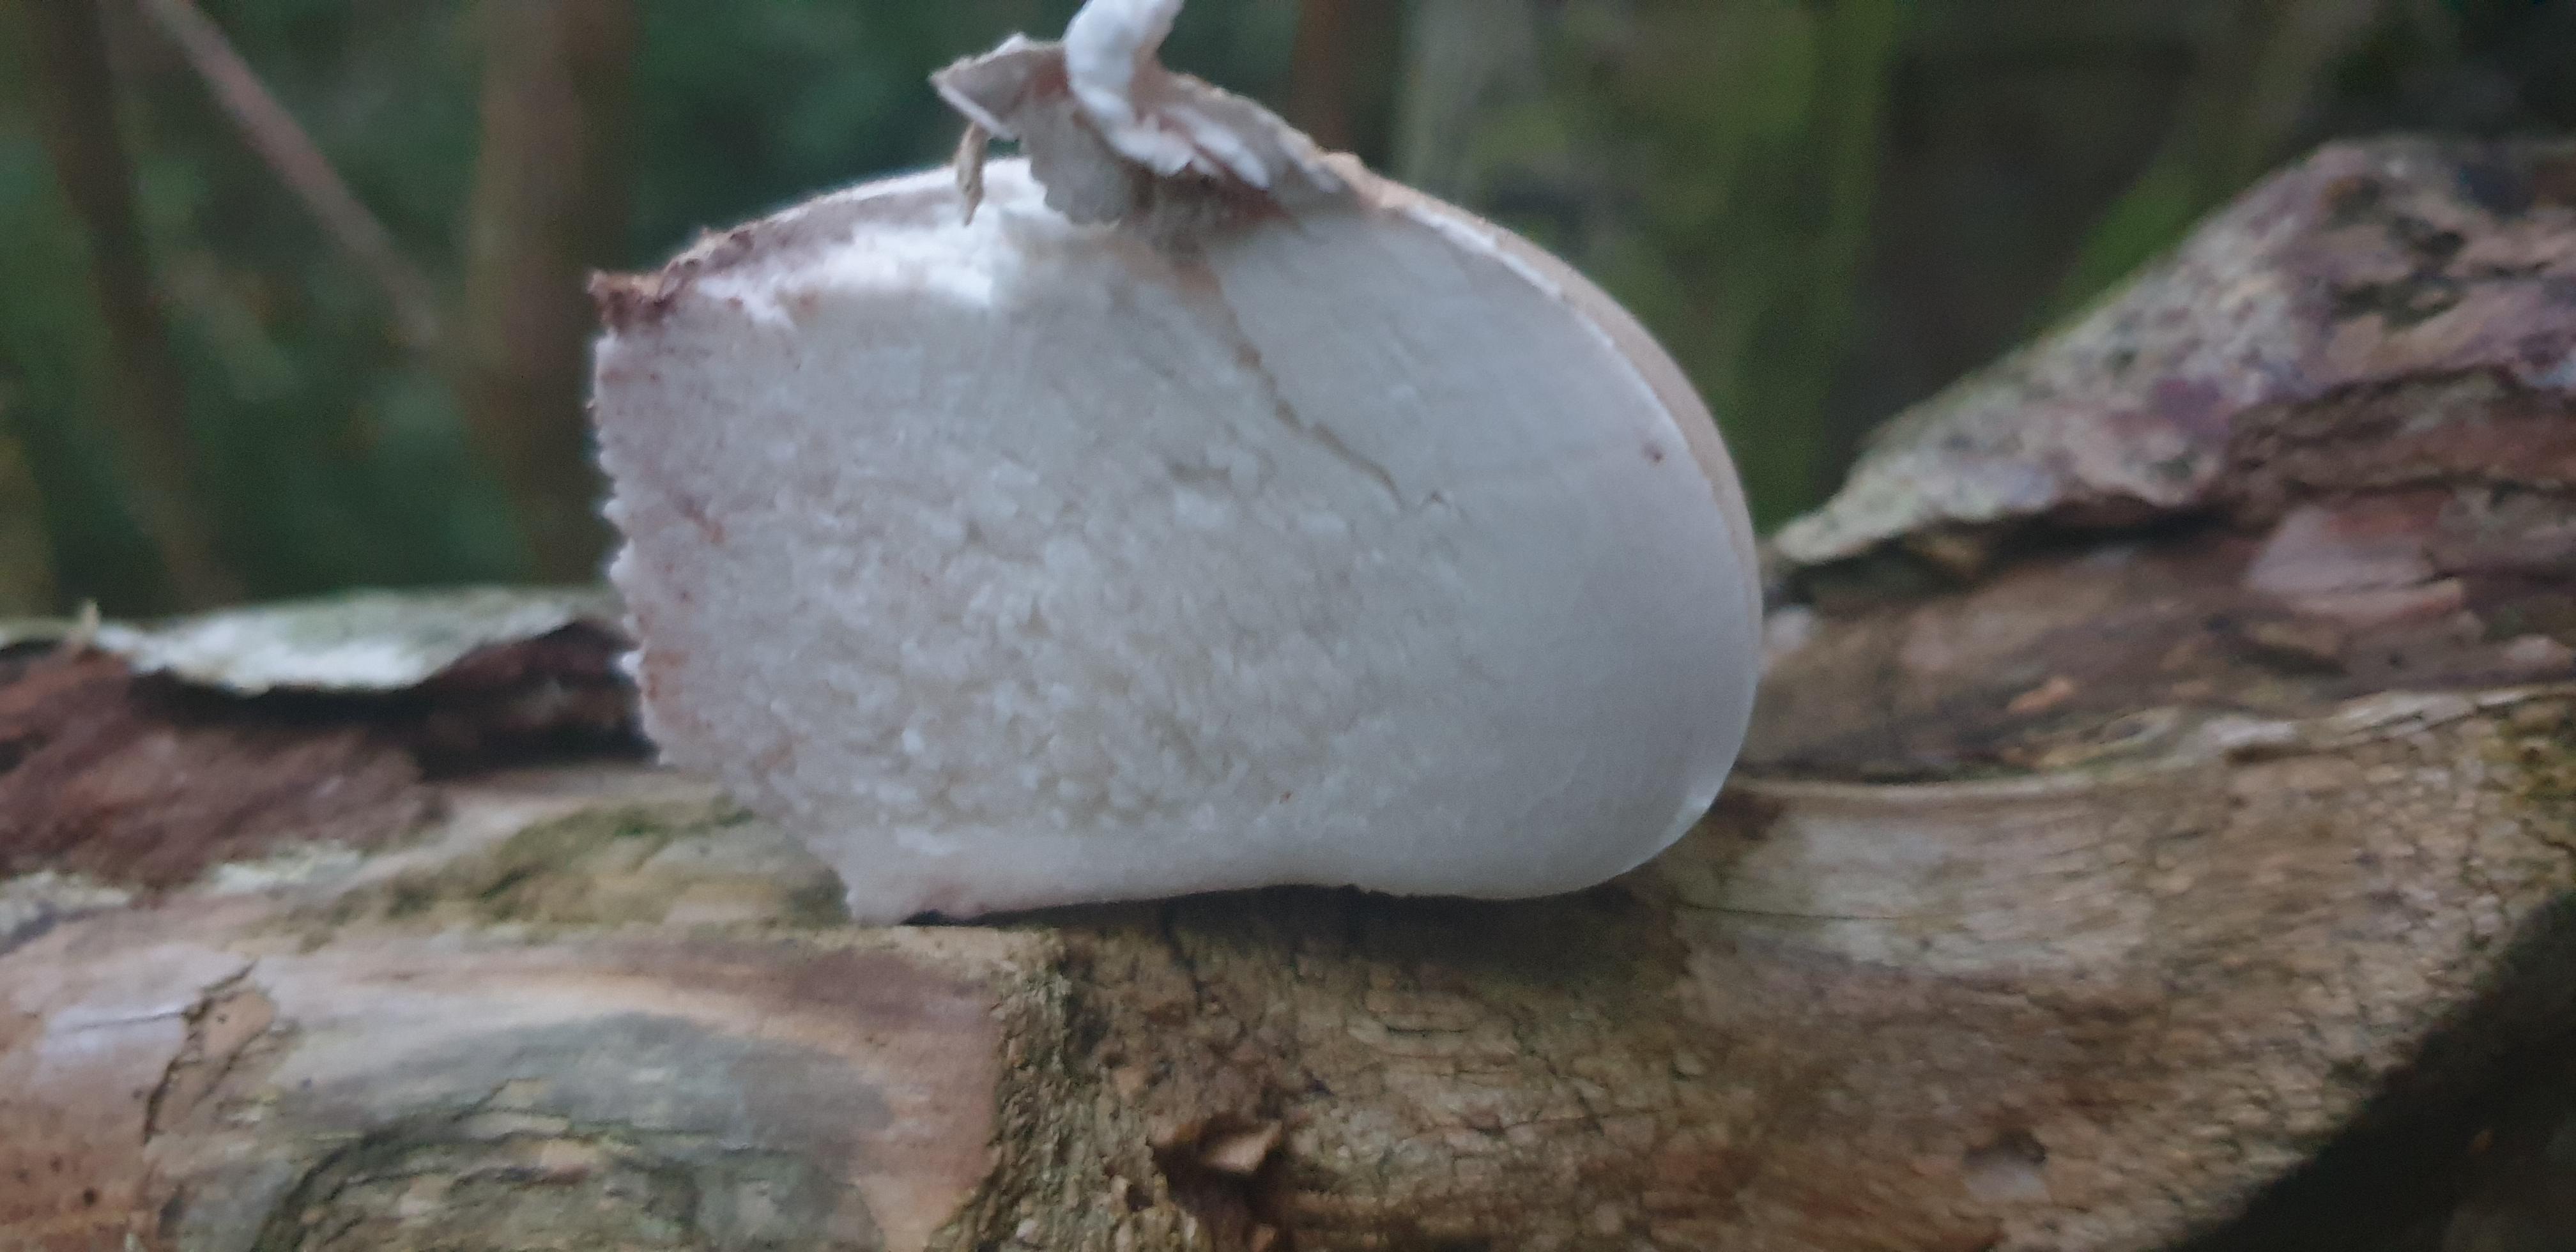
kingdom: Fungi
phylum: Basidiomycota
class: Agaricomycetes
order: Polyporales
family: Fomitopsidaceae
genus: Fomitopsis
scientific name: Fomitopsis betulina
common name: birkeporesvamp
